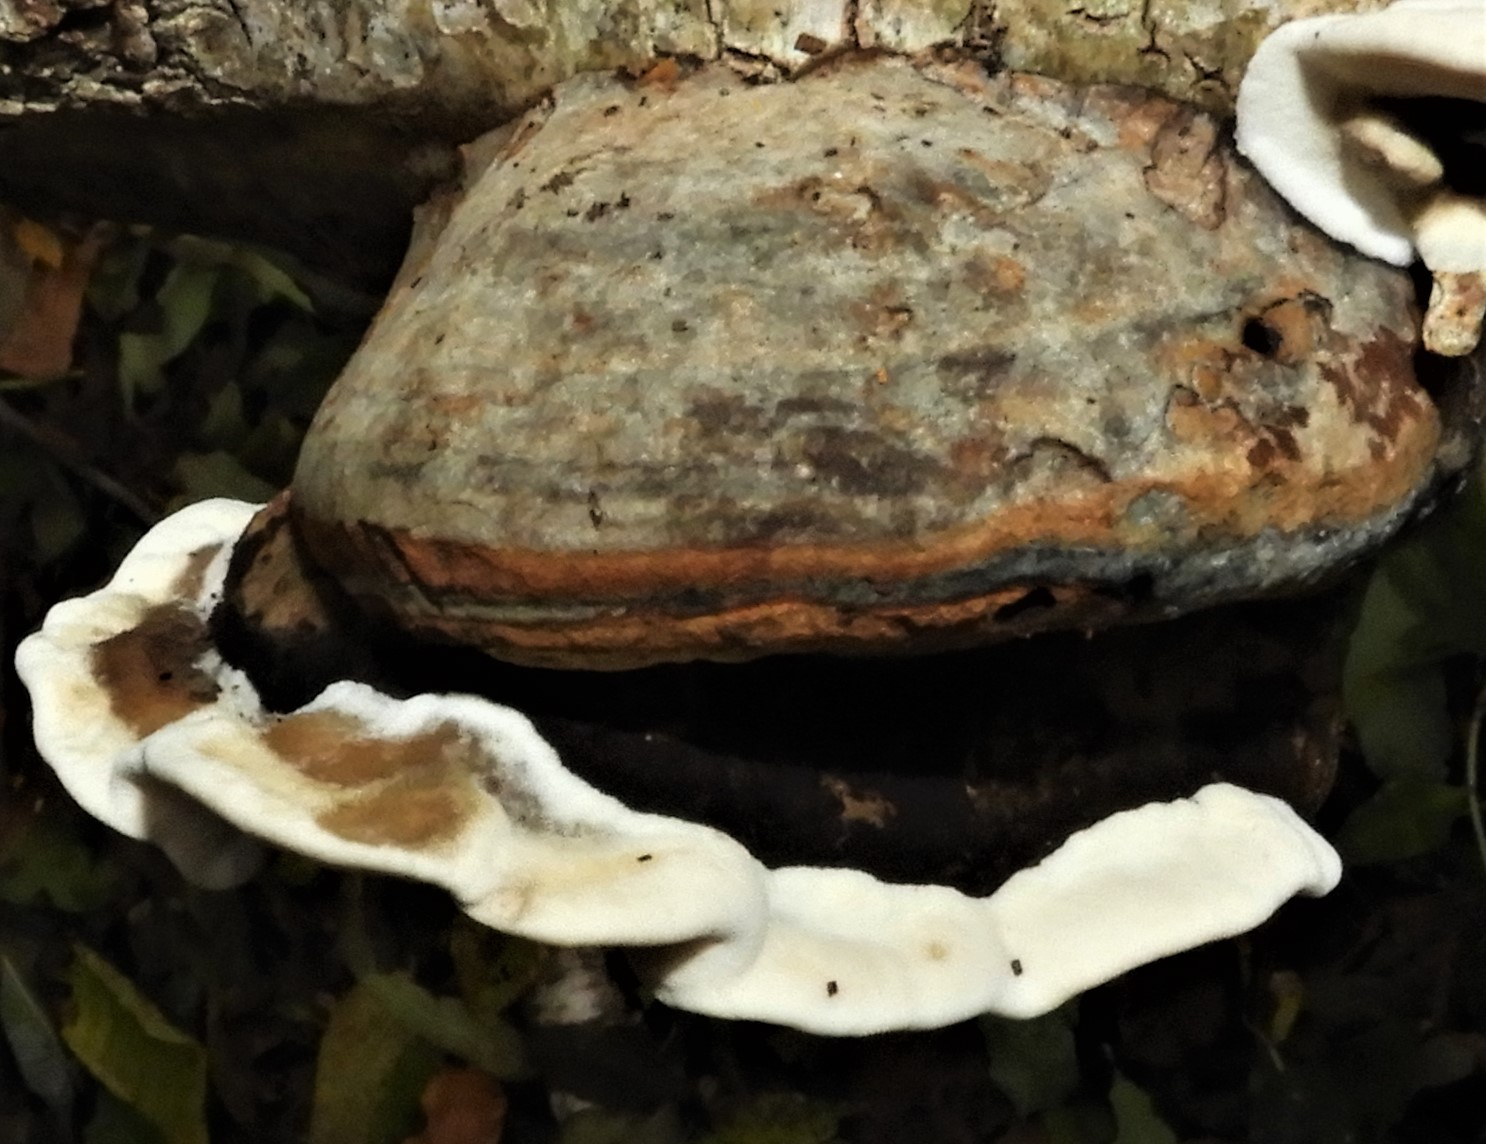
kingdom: Fungi
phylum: Basidiomycota
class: Agaricomycetes
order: Polyporales
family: Phanerochaetaceae
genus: Bjerkandera
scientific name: Bjerkandera adusta
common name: sveden sodporesvamp
